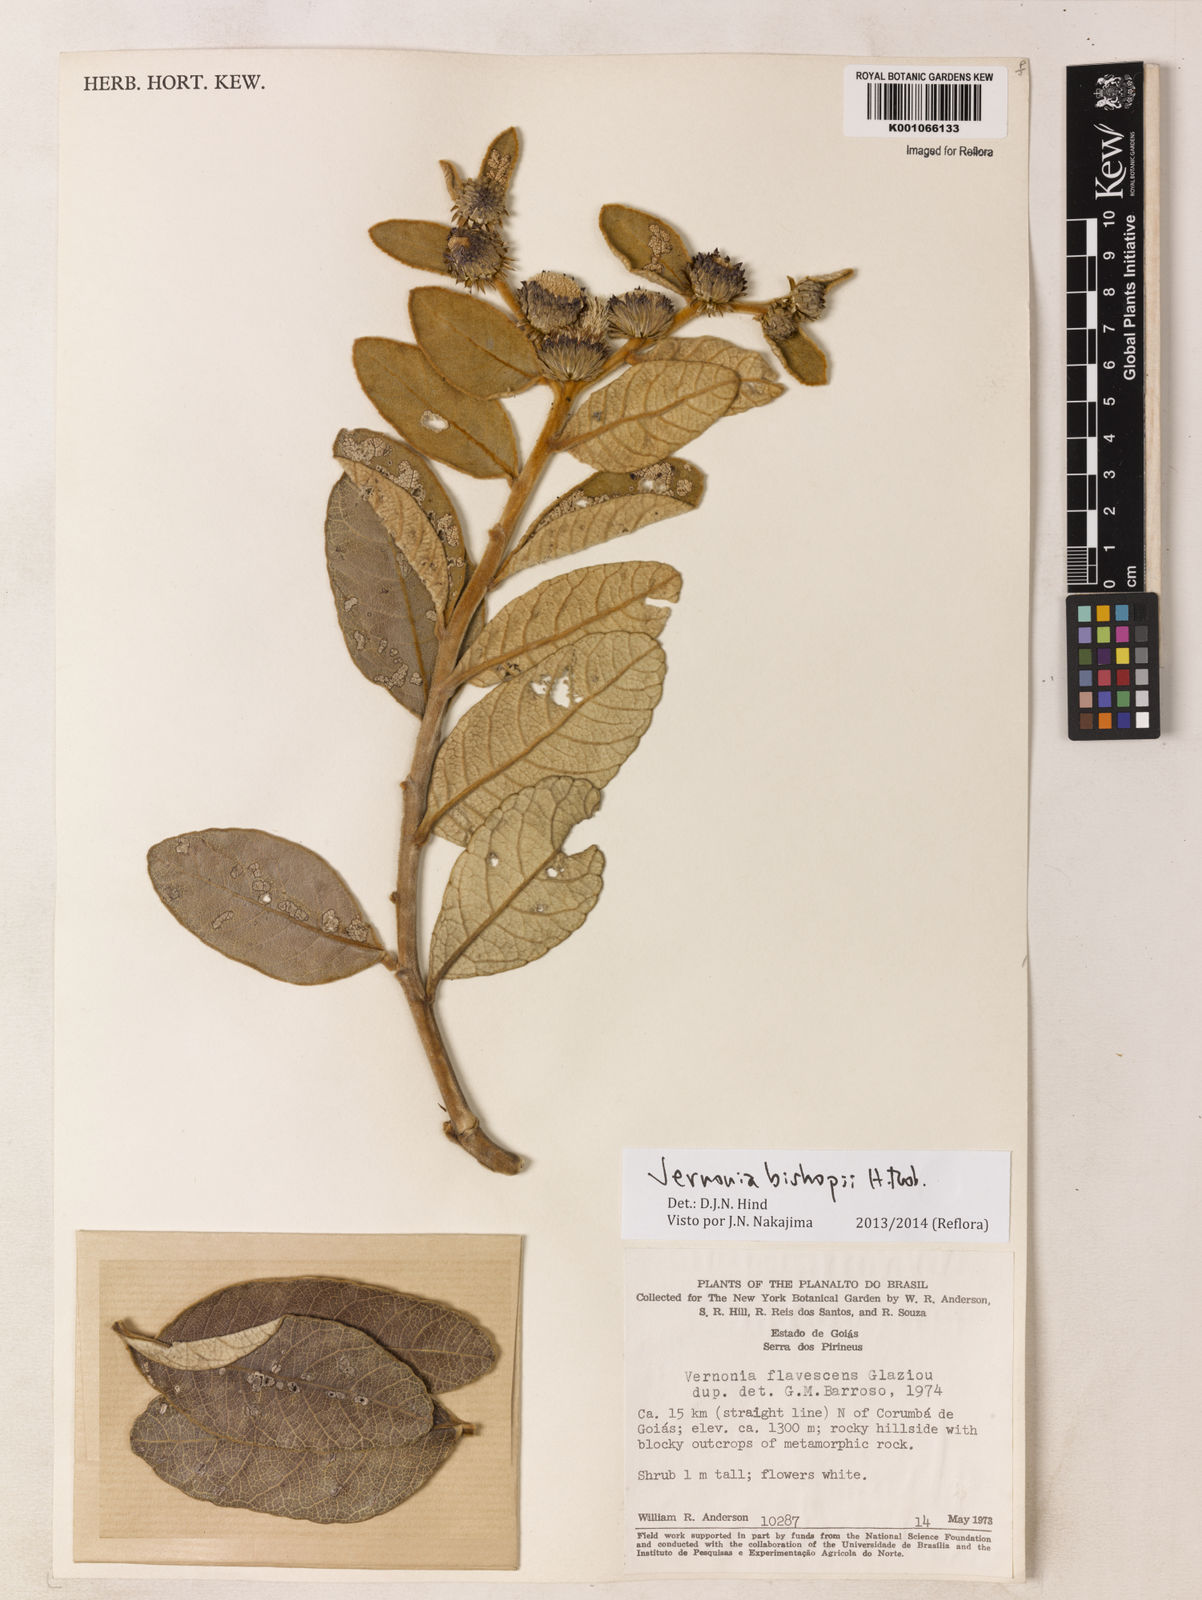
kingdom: Plantae
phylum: Tracheophyta
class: Magnoliopsida
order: Asterales
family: Asteraceae
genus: Lessingianthus
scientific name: Lessingianthus bishopii
